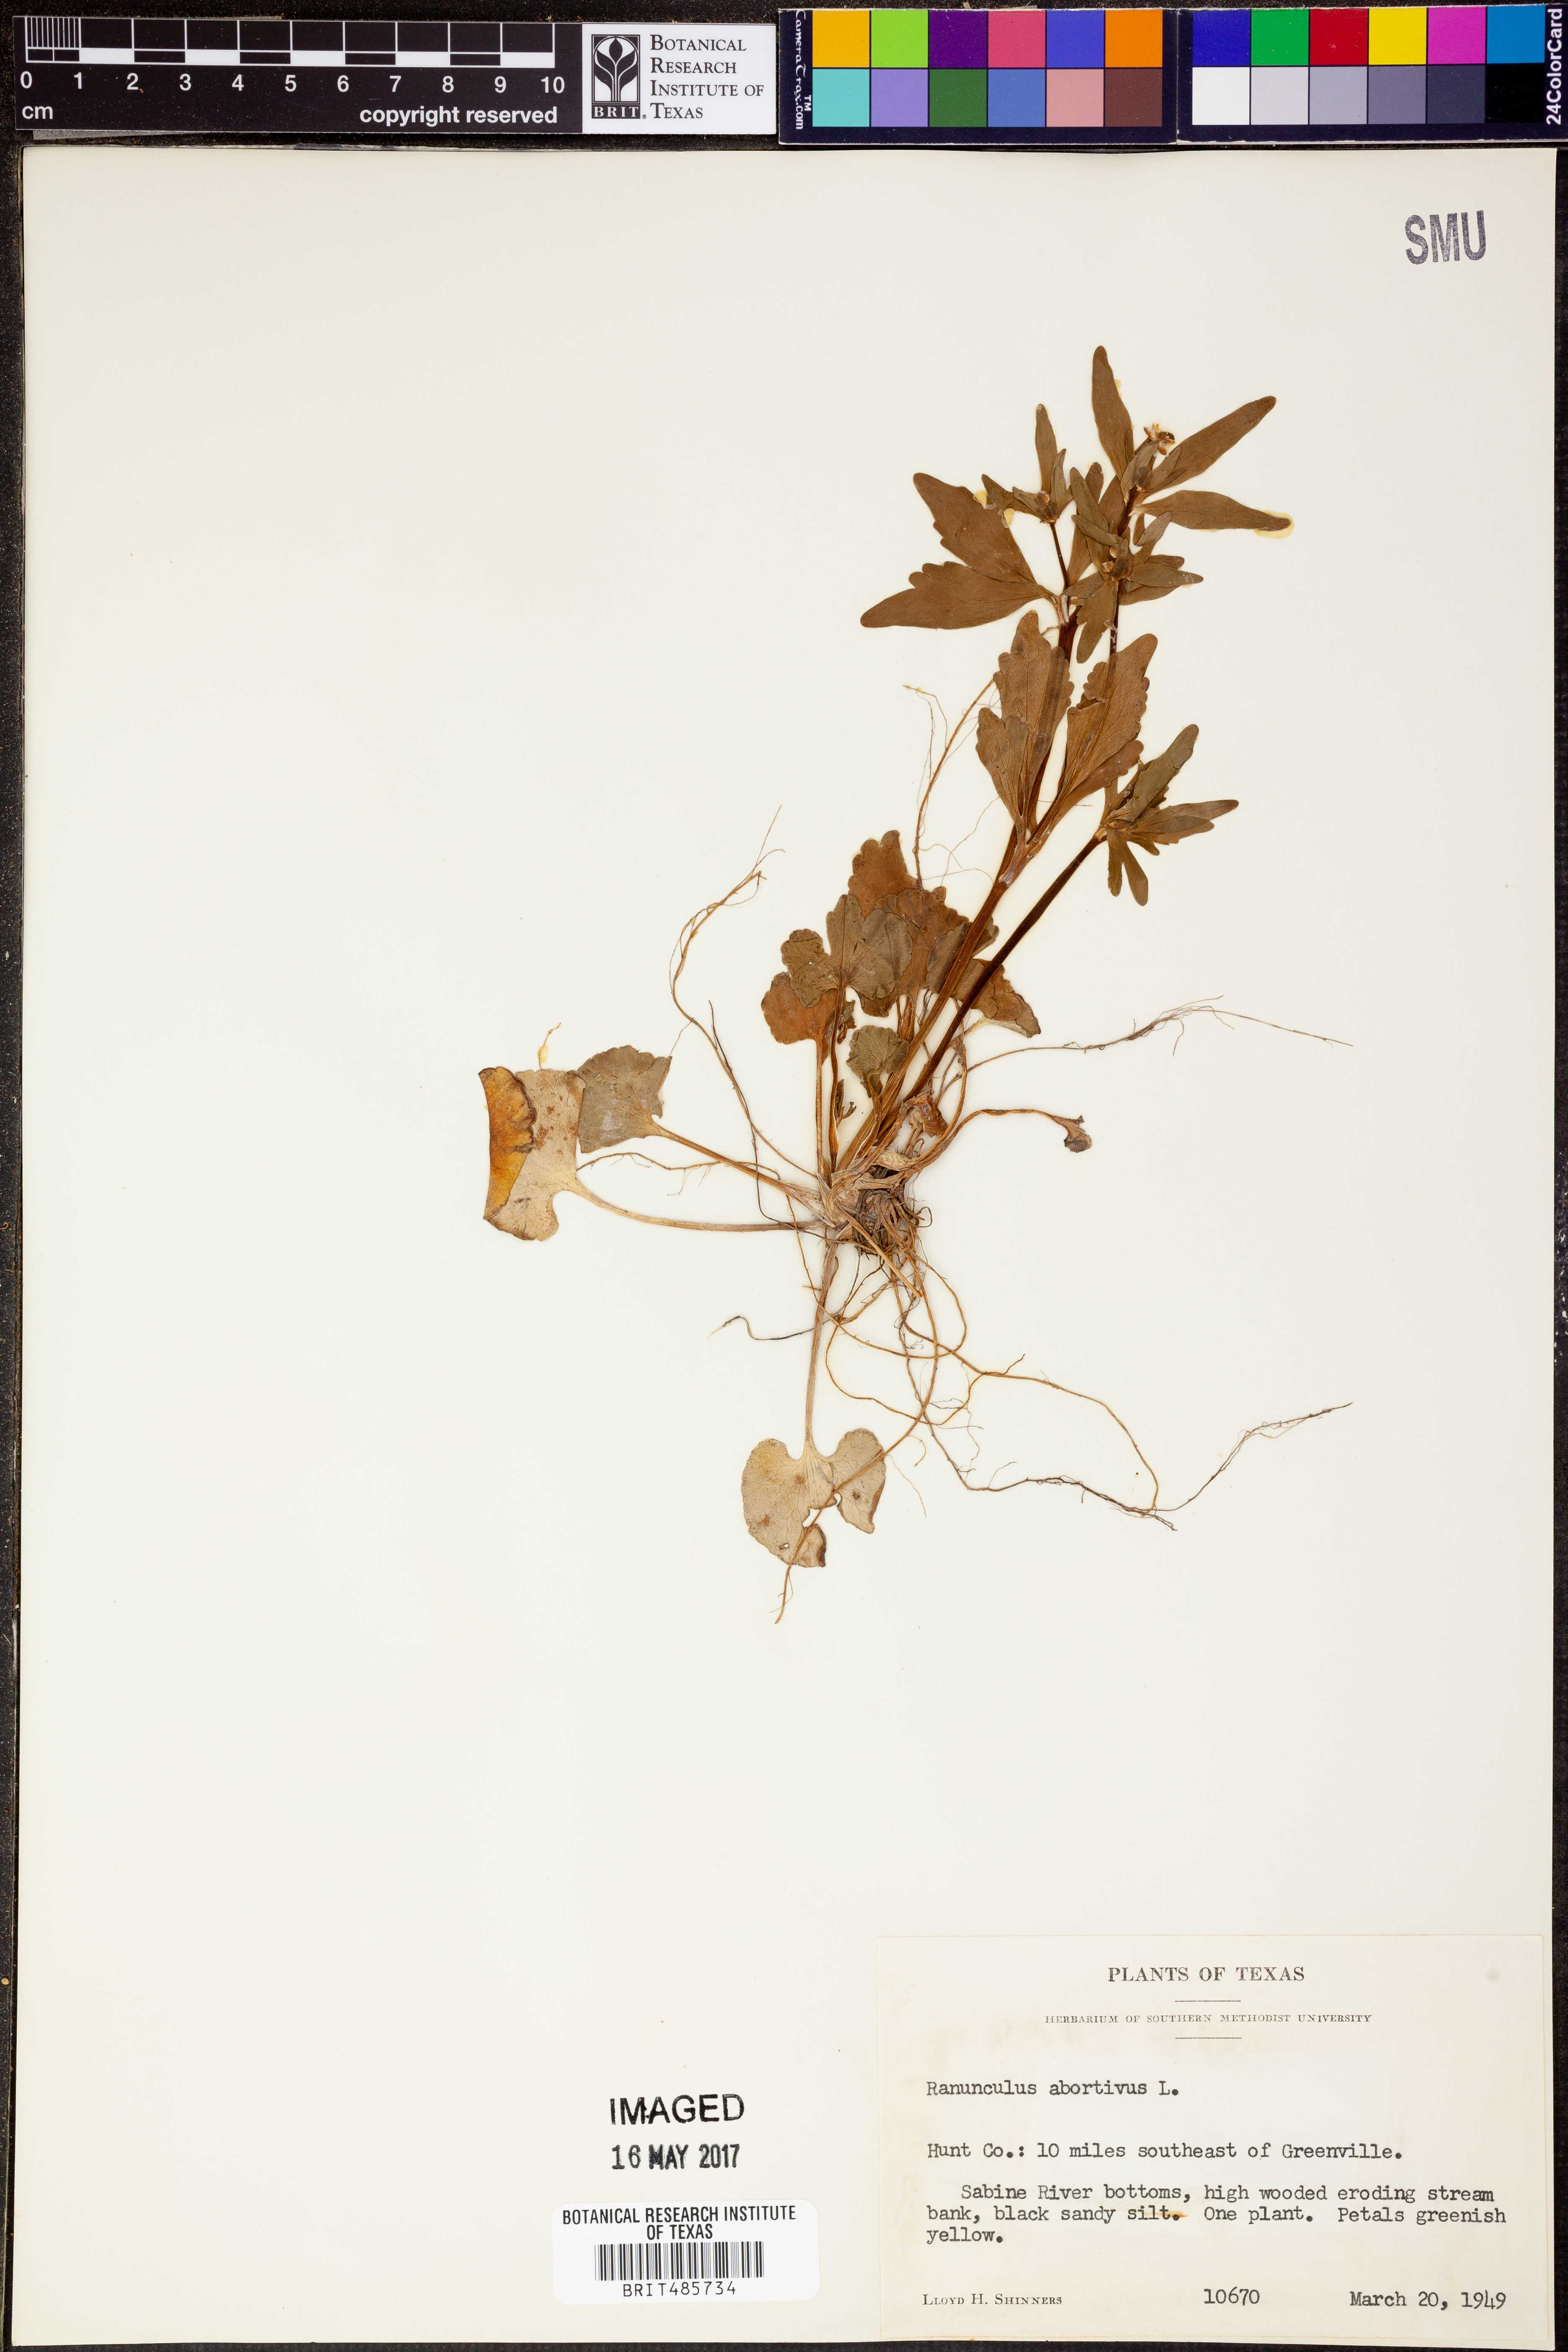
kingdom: Plantae
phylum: Tracheophyta
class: Magnoliopsida
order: Ranunculales
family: Ranunculaceae
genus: Ranunculus
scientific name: Ranunculus abortivus
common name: Early wood buttercup
